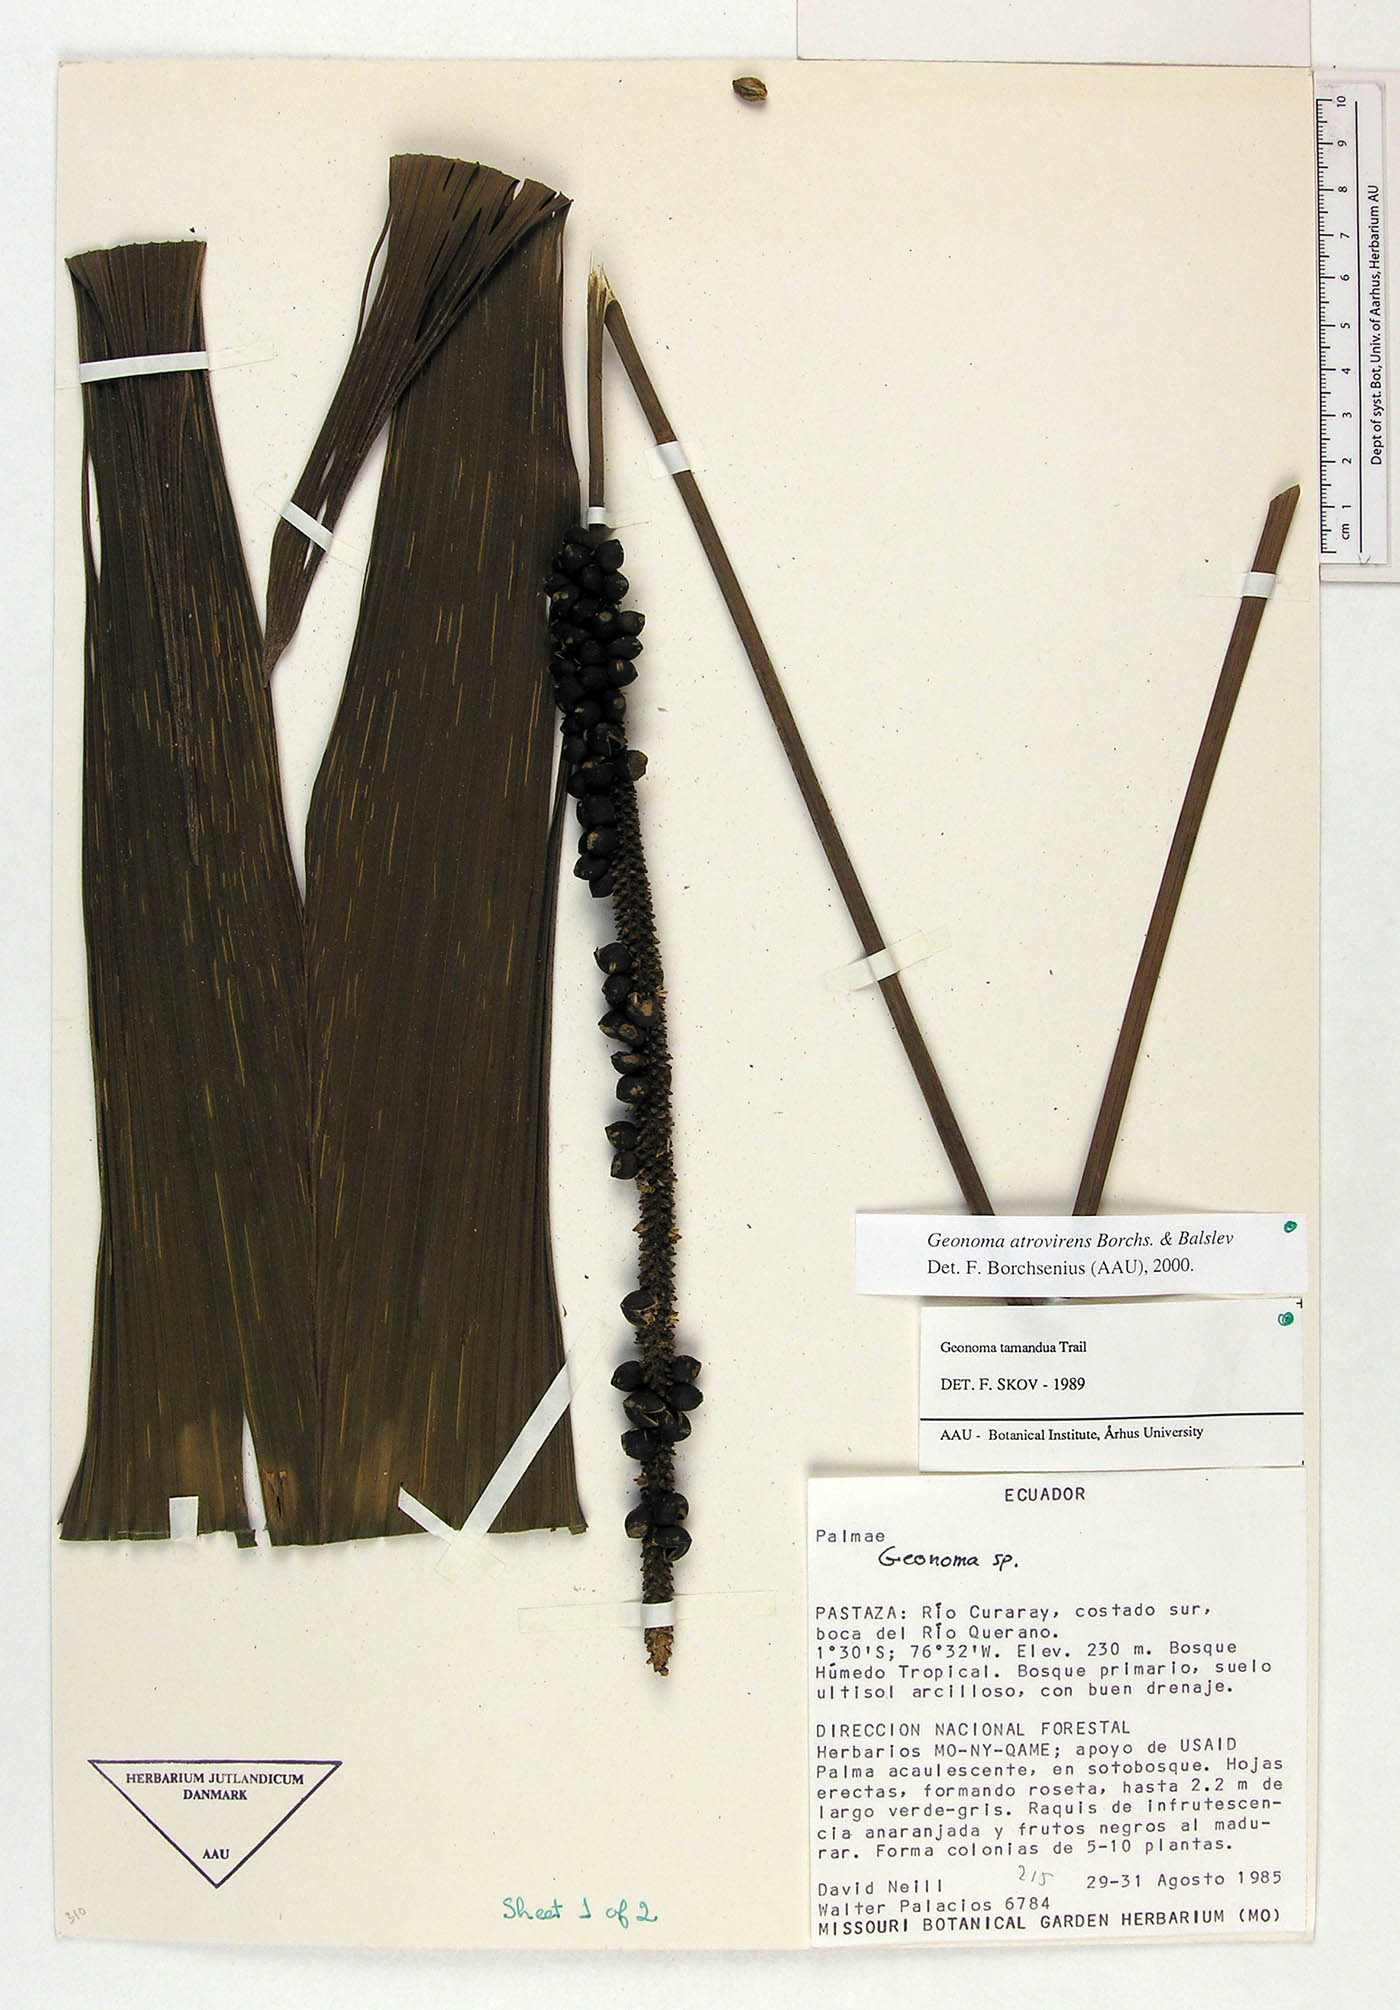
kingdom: Plantae
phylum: Tracheophyta
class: Liliopsida
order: Arecales
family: Arecaceae
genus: Geonoma
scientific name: Geonoma macrostachys
